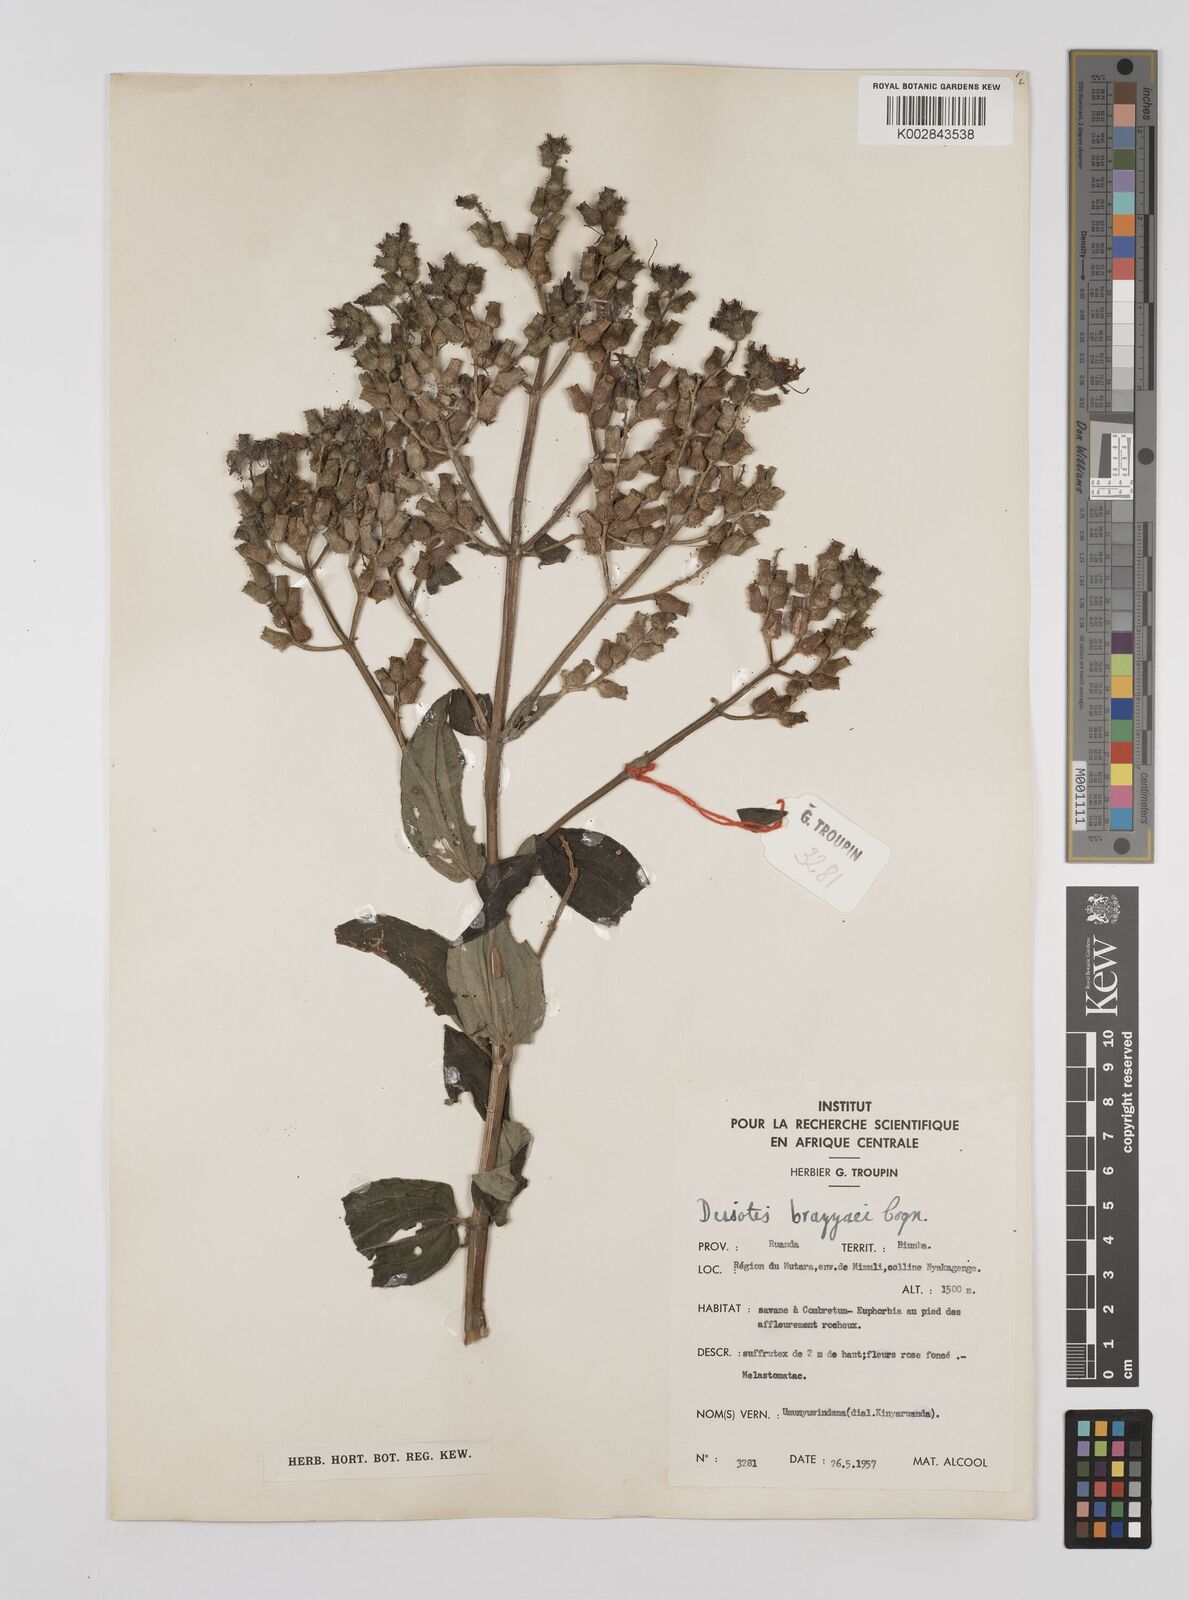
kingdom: Plantae
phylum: Tracheophyta
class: Magnoliopsida
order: Myrtales
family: Melastomataceae
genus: Dupineta
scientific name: Dupineta brazzae
